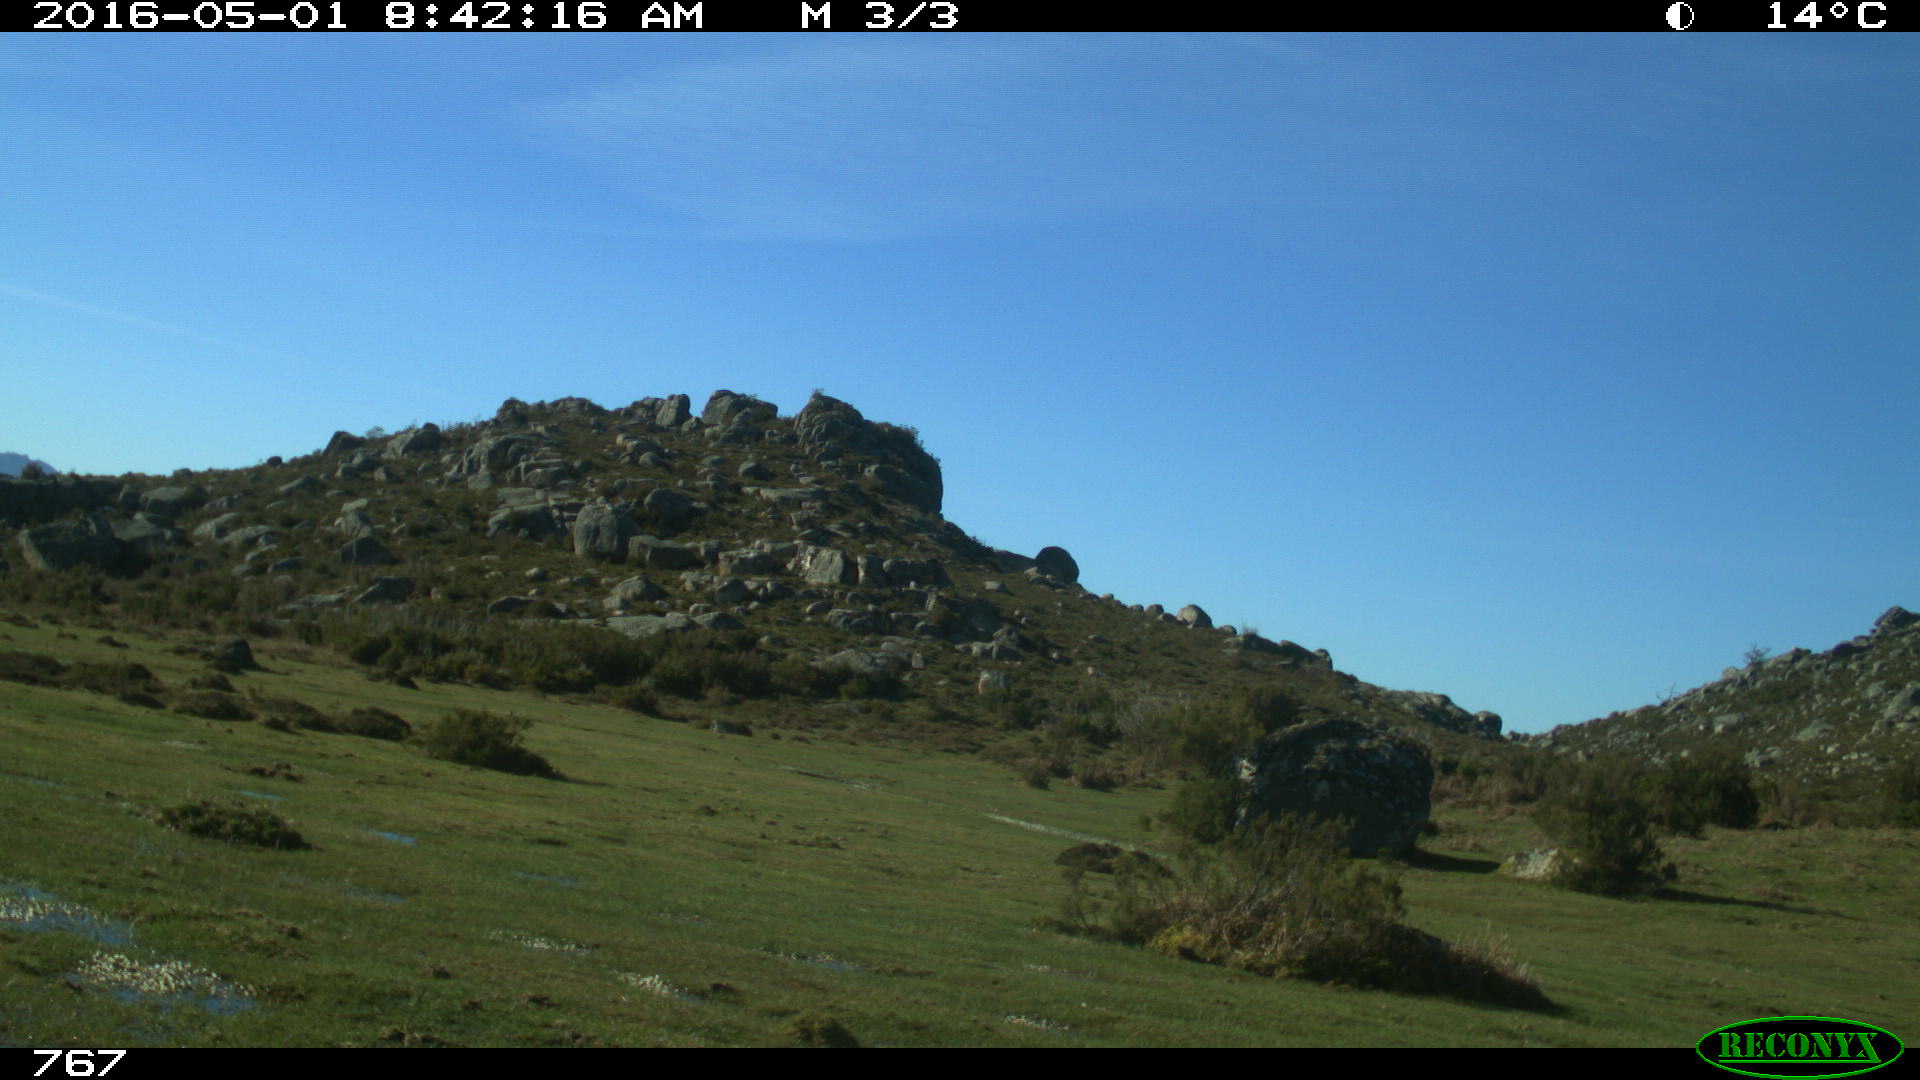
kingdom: Animalia
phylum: Chordata
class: Mammalia
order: Artiodactyla
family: Bovidae
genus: Bos
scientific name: Bos taurus
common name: Domesticated cattle
